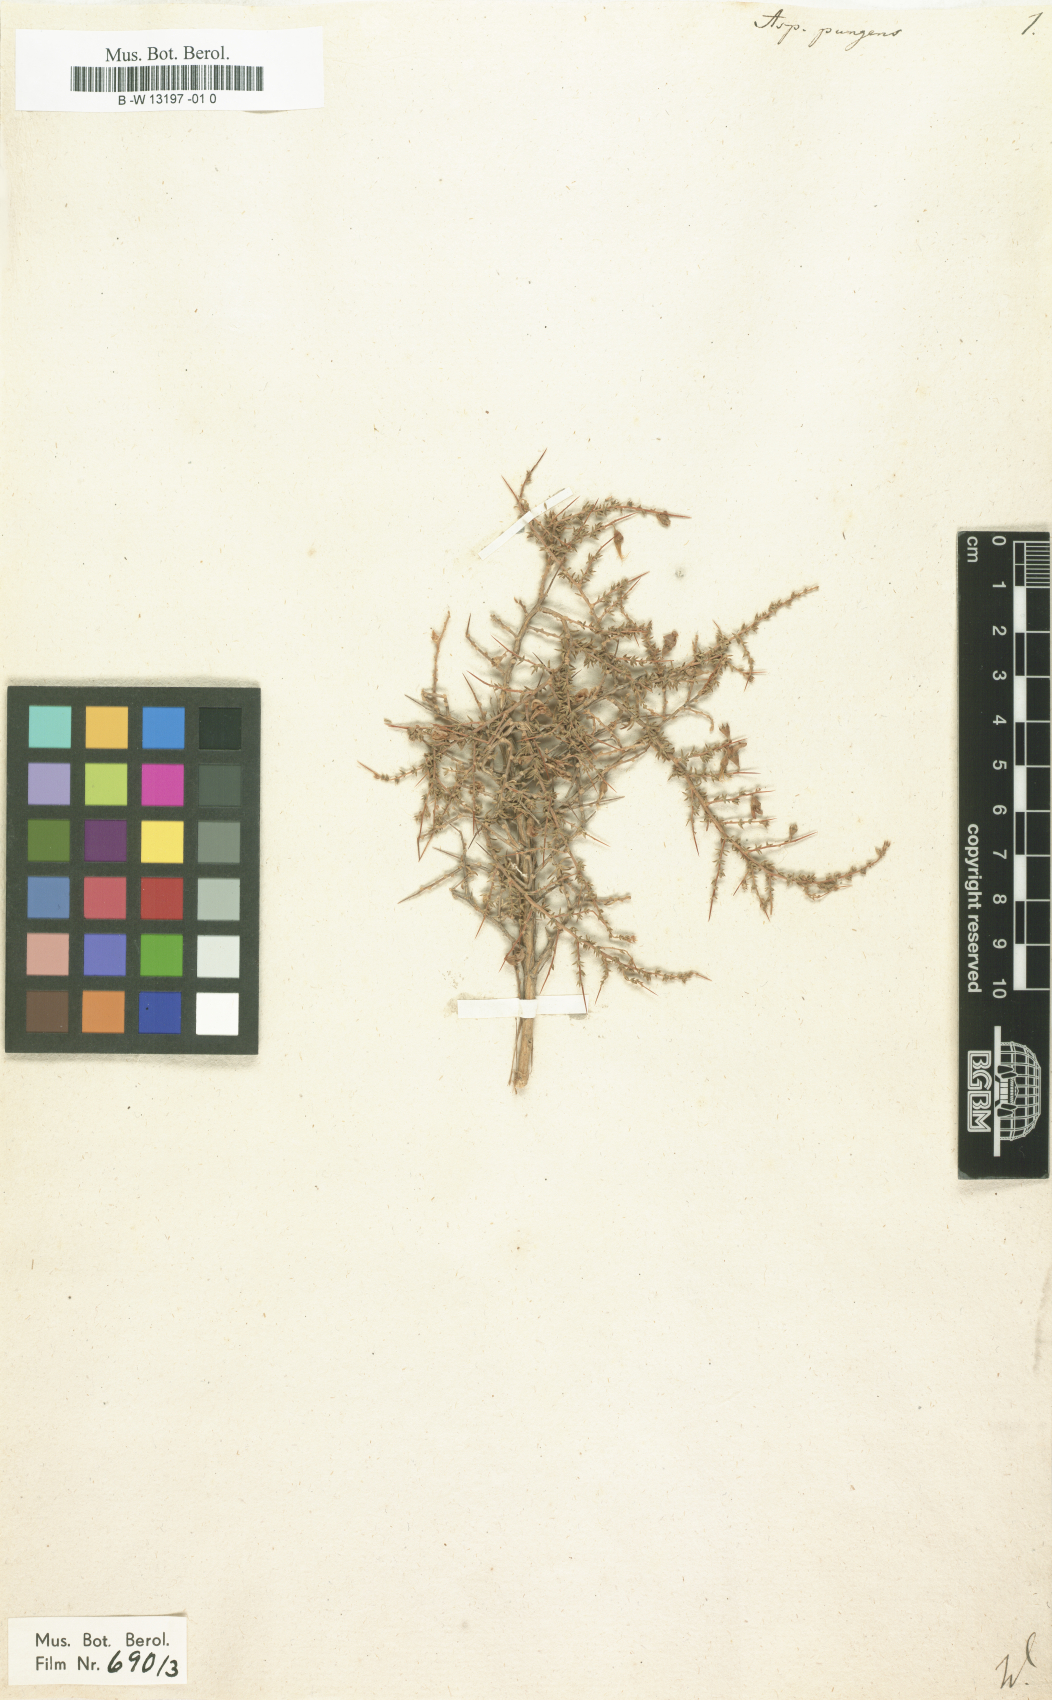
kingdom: Plantae
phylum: Tracheophyta
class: Magnoliopsida
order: Fabales
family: Fabaceae
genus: Aspalathus
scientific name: Aspalathus acuminata
